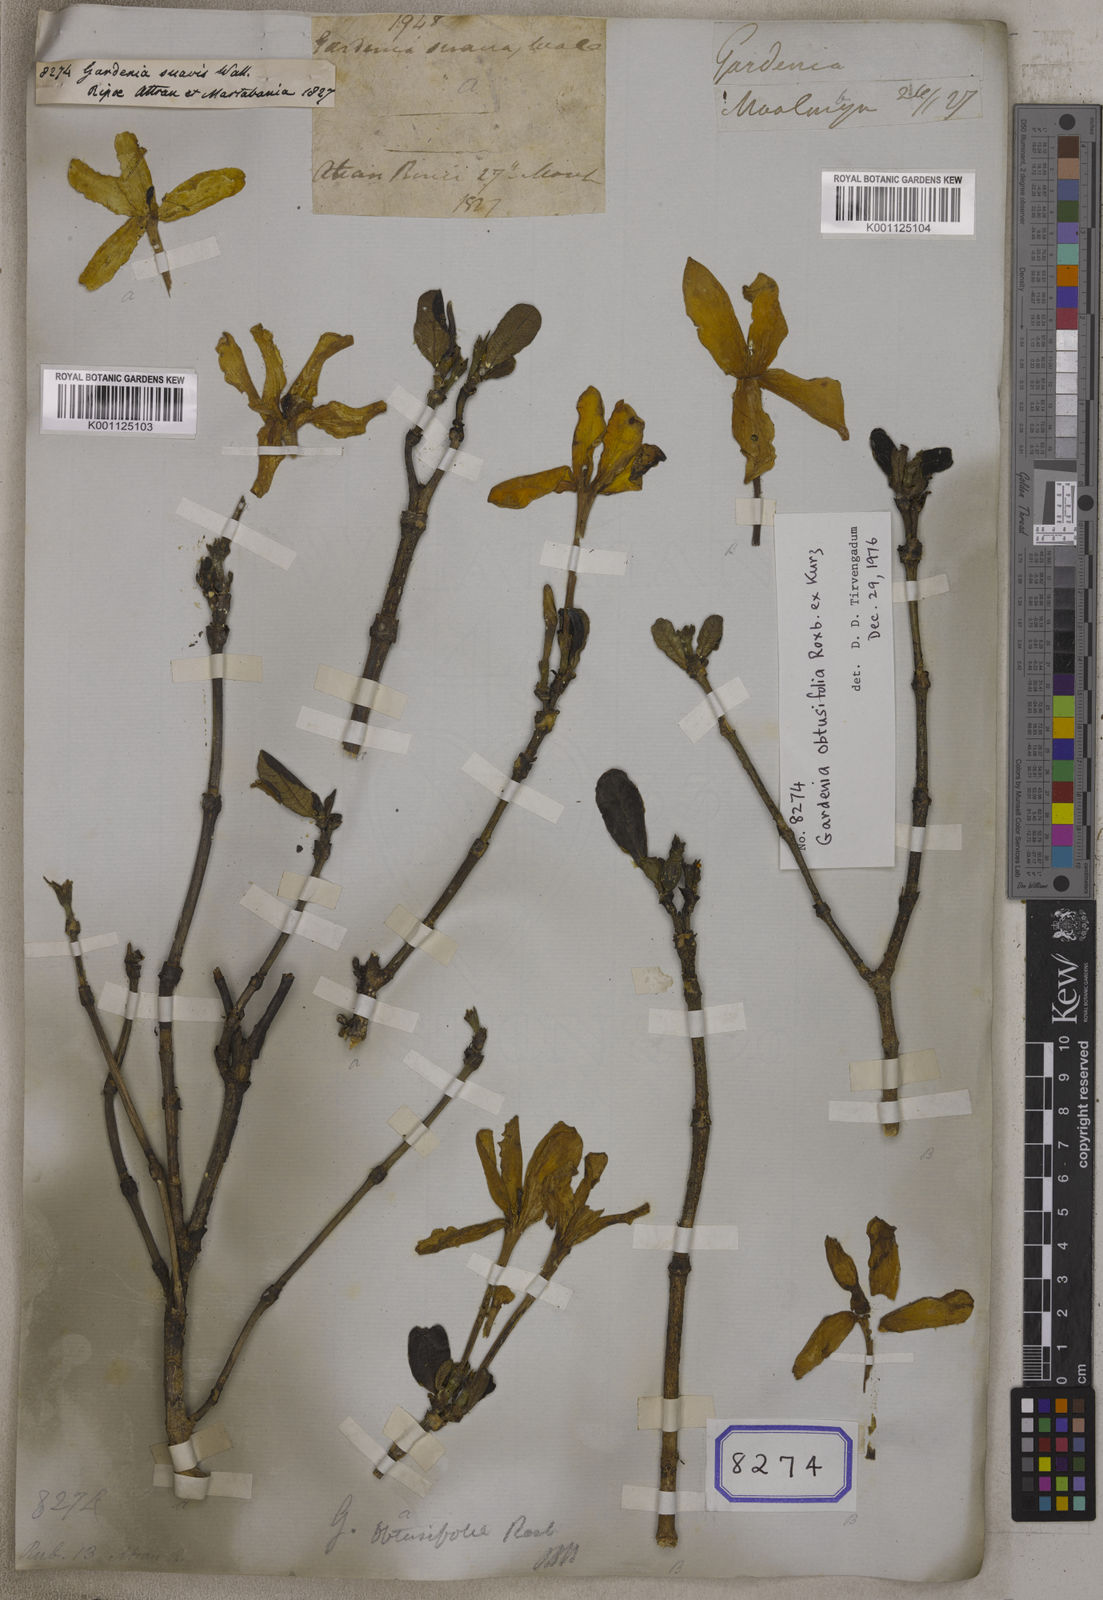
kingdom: Plantae
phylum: Tracheophyta
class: Magnoliopsida
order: Gentianales
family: Rubiaceae
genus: Gardenia
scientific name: Gardenia obtusifolia
